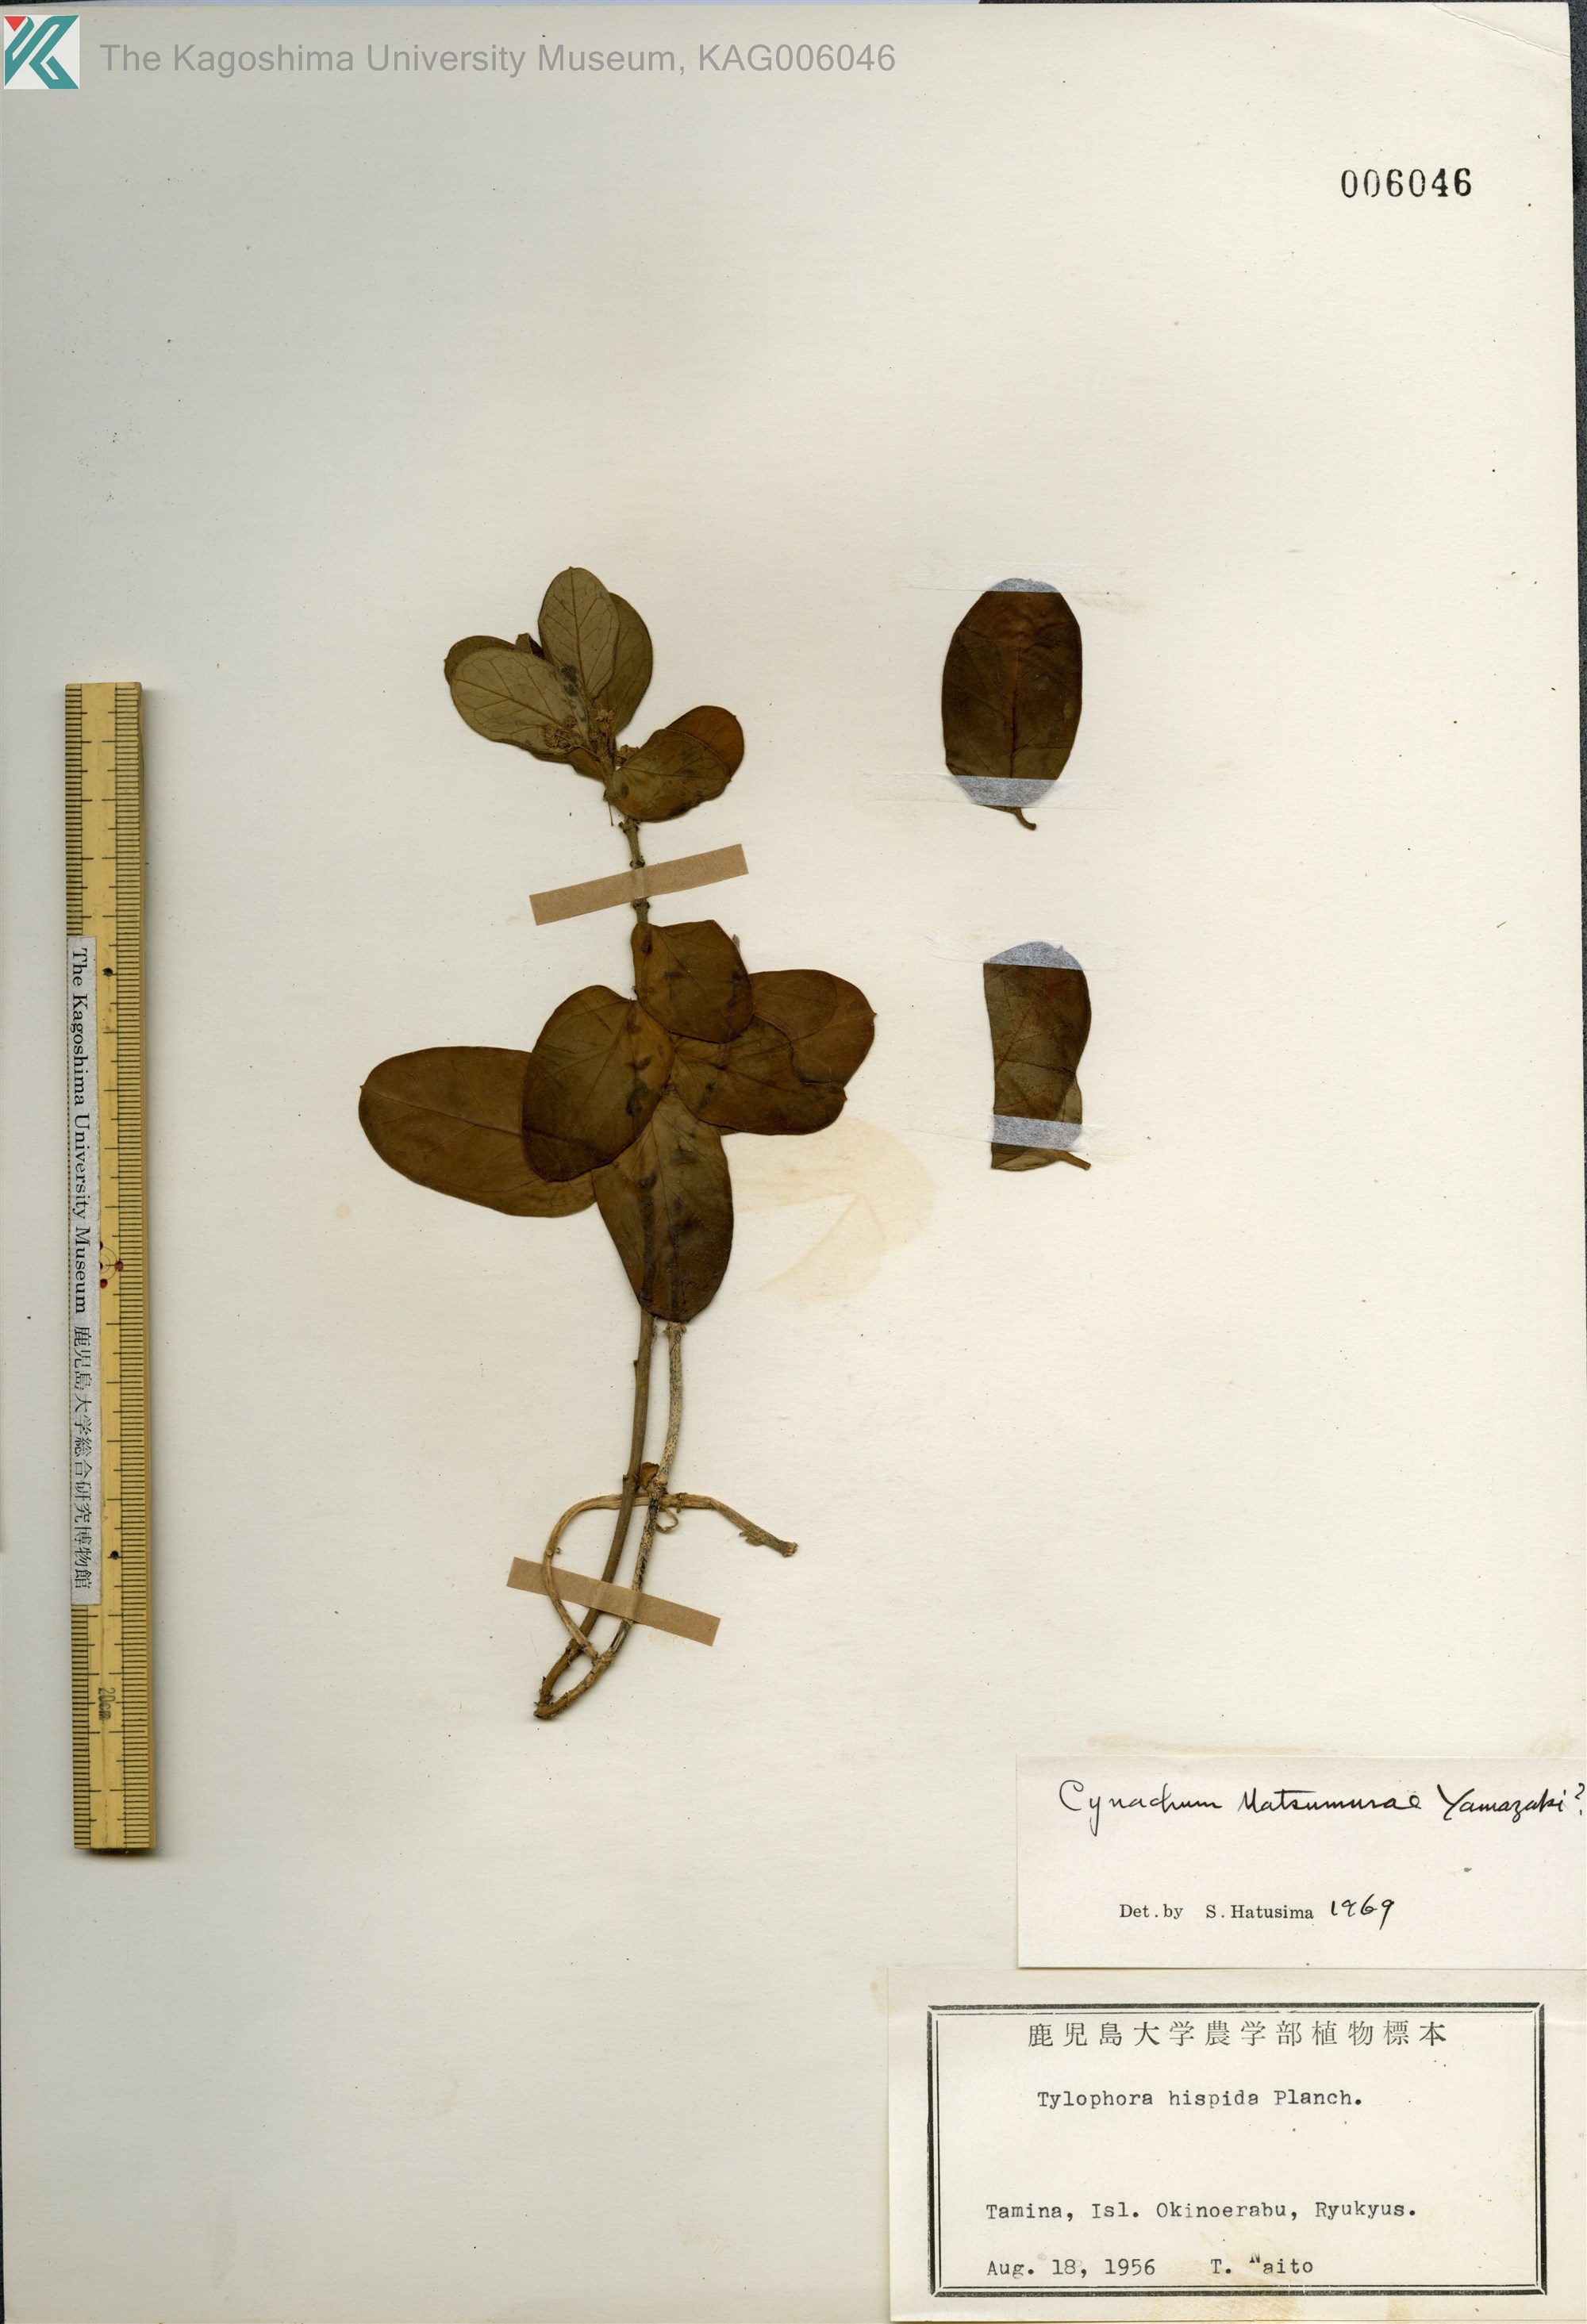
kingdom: Plantae
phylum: Tracheophyta
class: Magnoliopsida
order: Gentianales
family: Apocynaceae
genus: Vincetoxicum
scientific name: Vincetoxicum matsumurae
